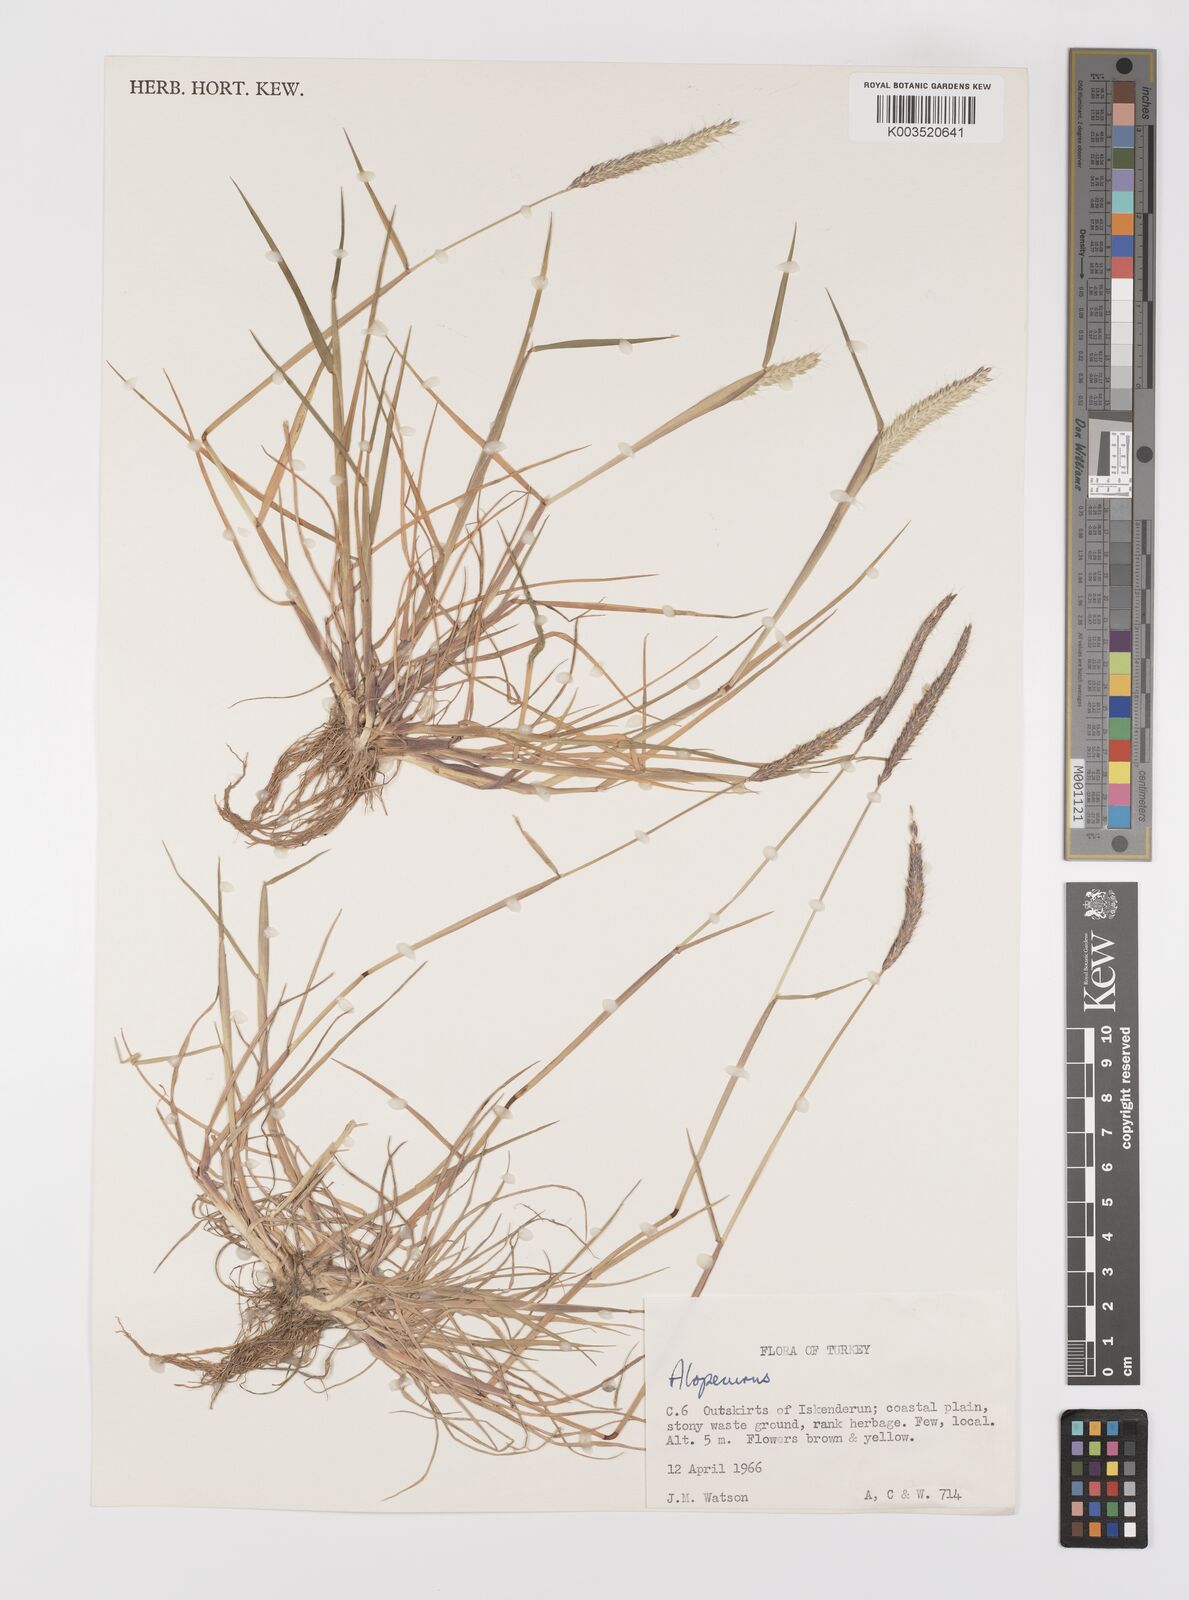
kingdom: Plantae
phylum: Tracheophyta
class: Liliopsida
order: Poales
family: Poaceae
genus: Alopecurus
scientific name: Alopecurus
